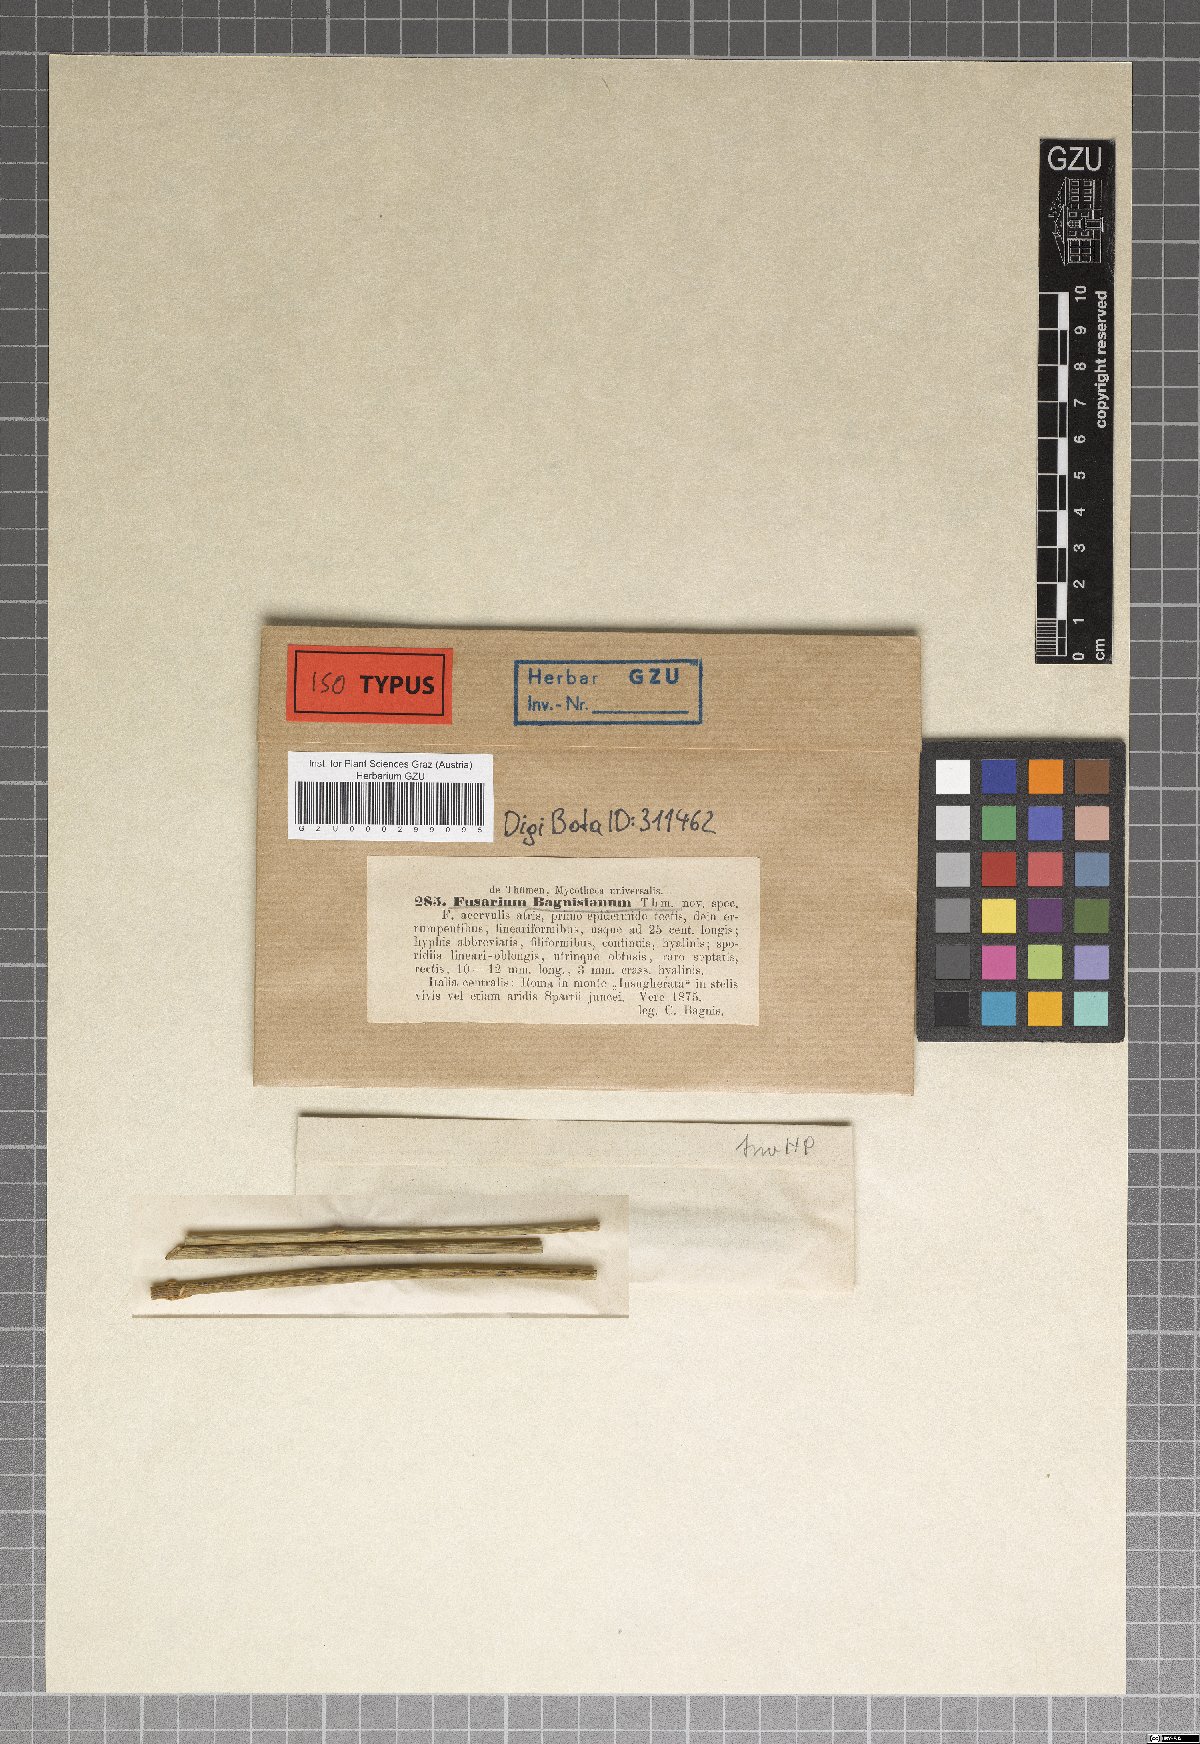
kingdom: Fungi
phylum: Ascomycota
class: Sordariomycetes
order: Hypocreales
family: Nectriaceae
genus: Fusarium
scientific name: Fusarium
